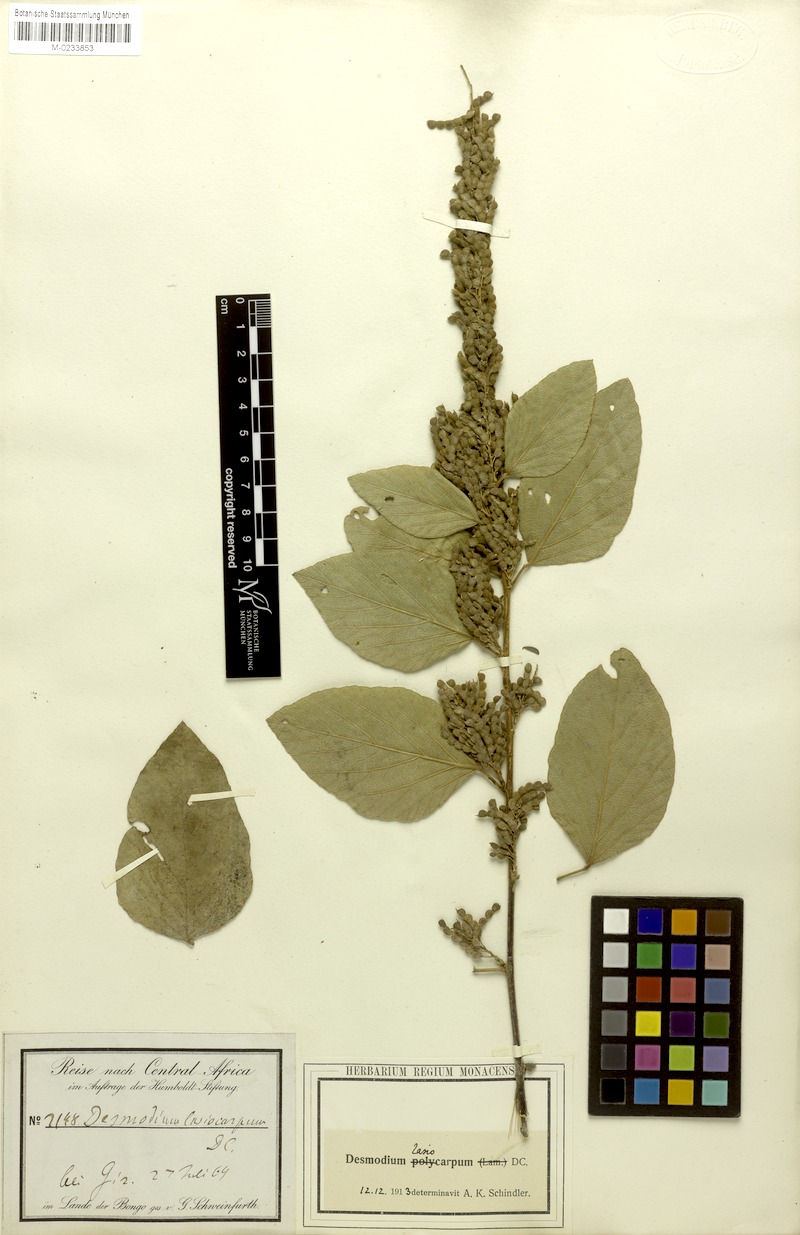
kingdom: Plantae
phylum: Tracheophyta
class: Magnoliopsida
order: Fabales
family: Fabaceae
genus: Polhillides
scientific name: Polhillides velutina
